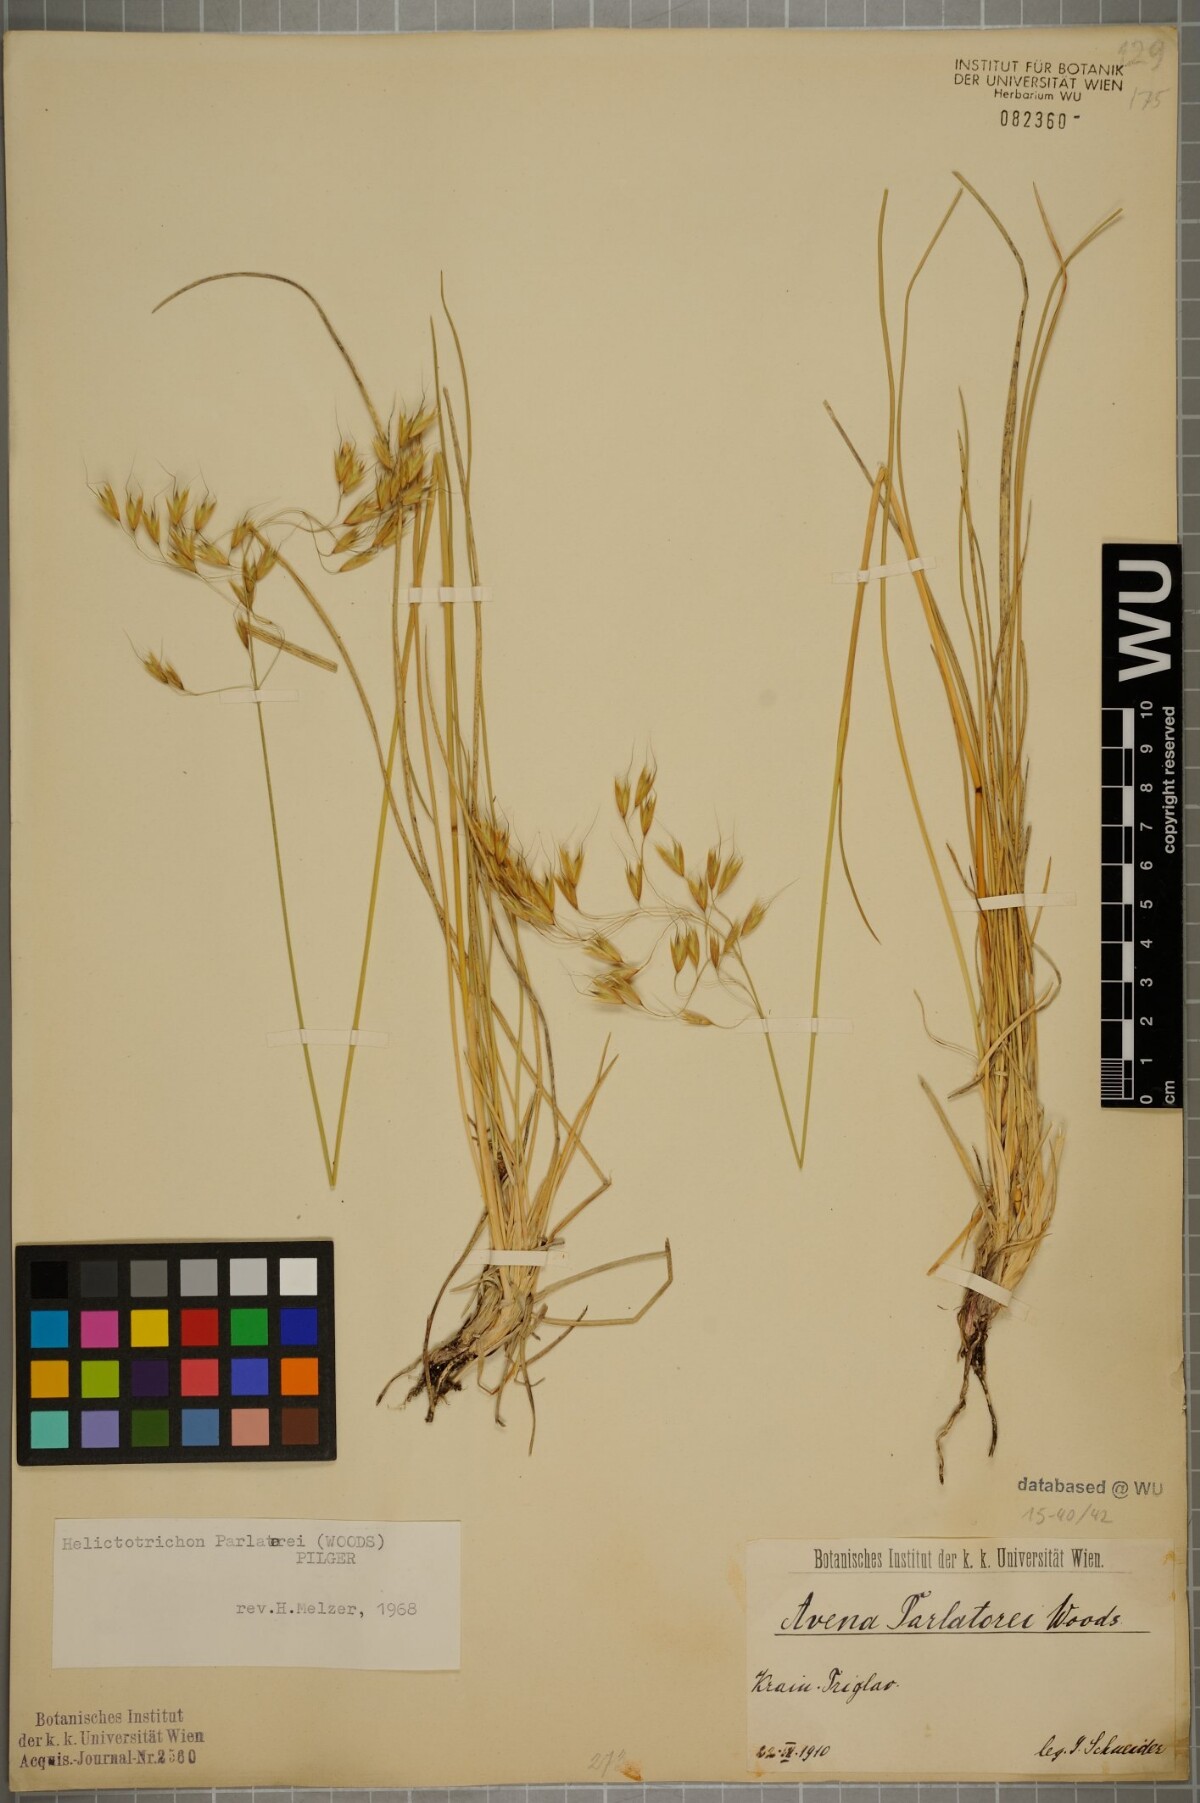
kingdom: Plantae
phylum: Tracheophyta
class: Liliopsida
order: Poales
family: Poaceae
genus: Helictotrichon
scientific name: Helictotrichon parlatorei
